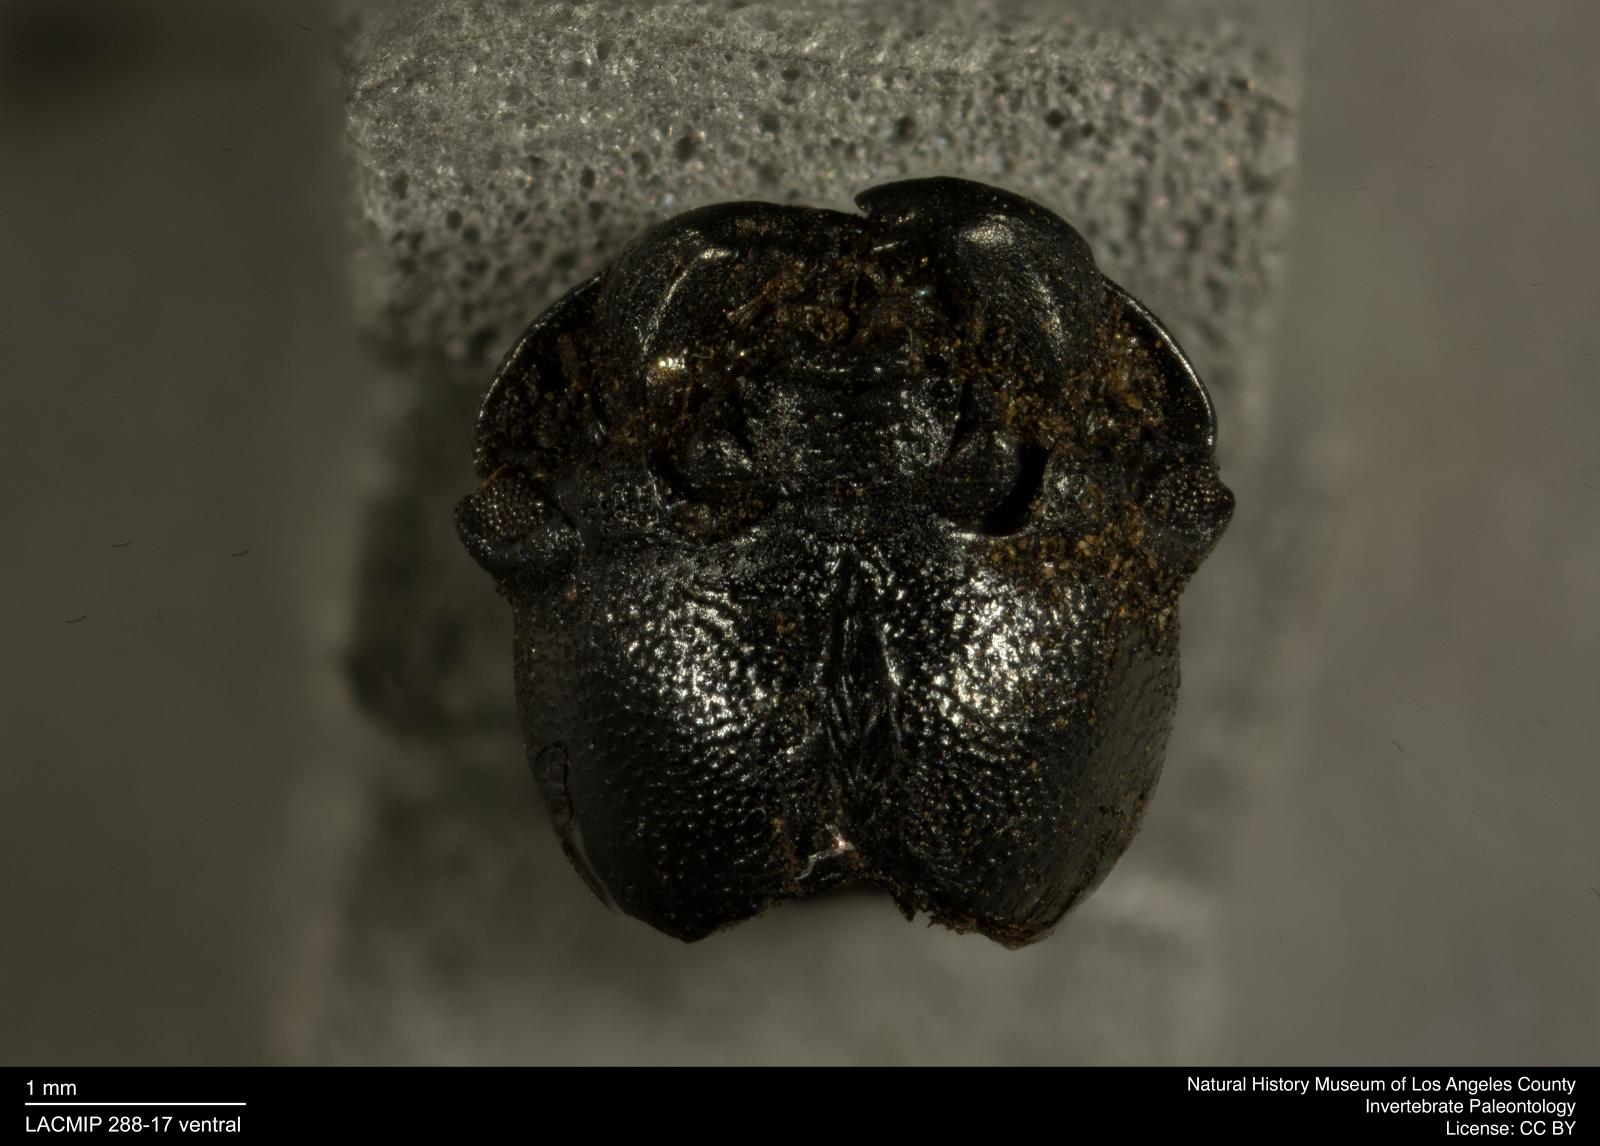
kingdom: Animalia
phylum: Arthropoda
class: Insecta
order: Coleoptera
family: Tenebrionidae
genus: Coniontis
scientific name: Coniontis abdominalis
